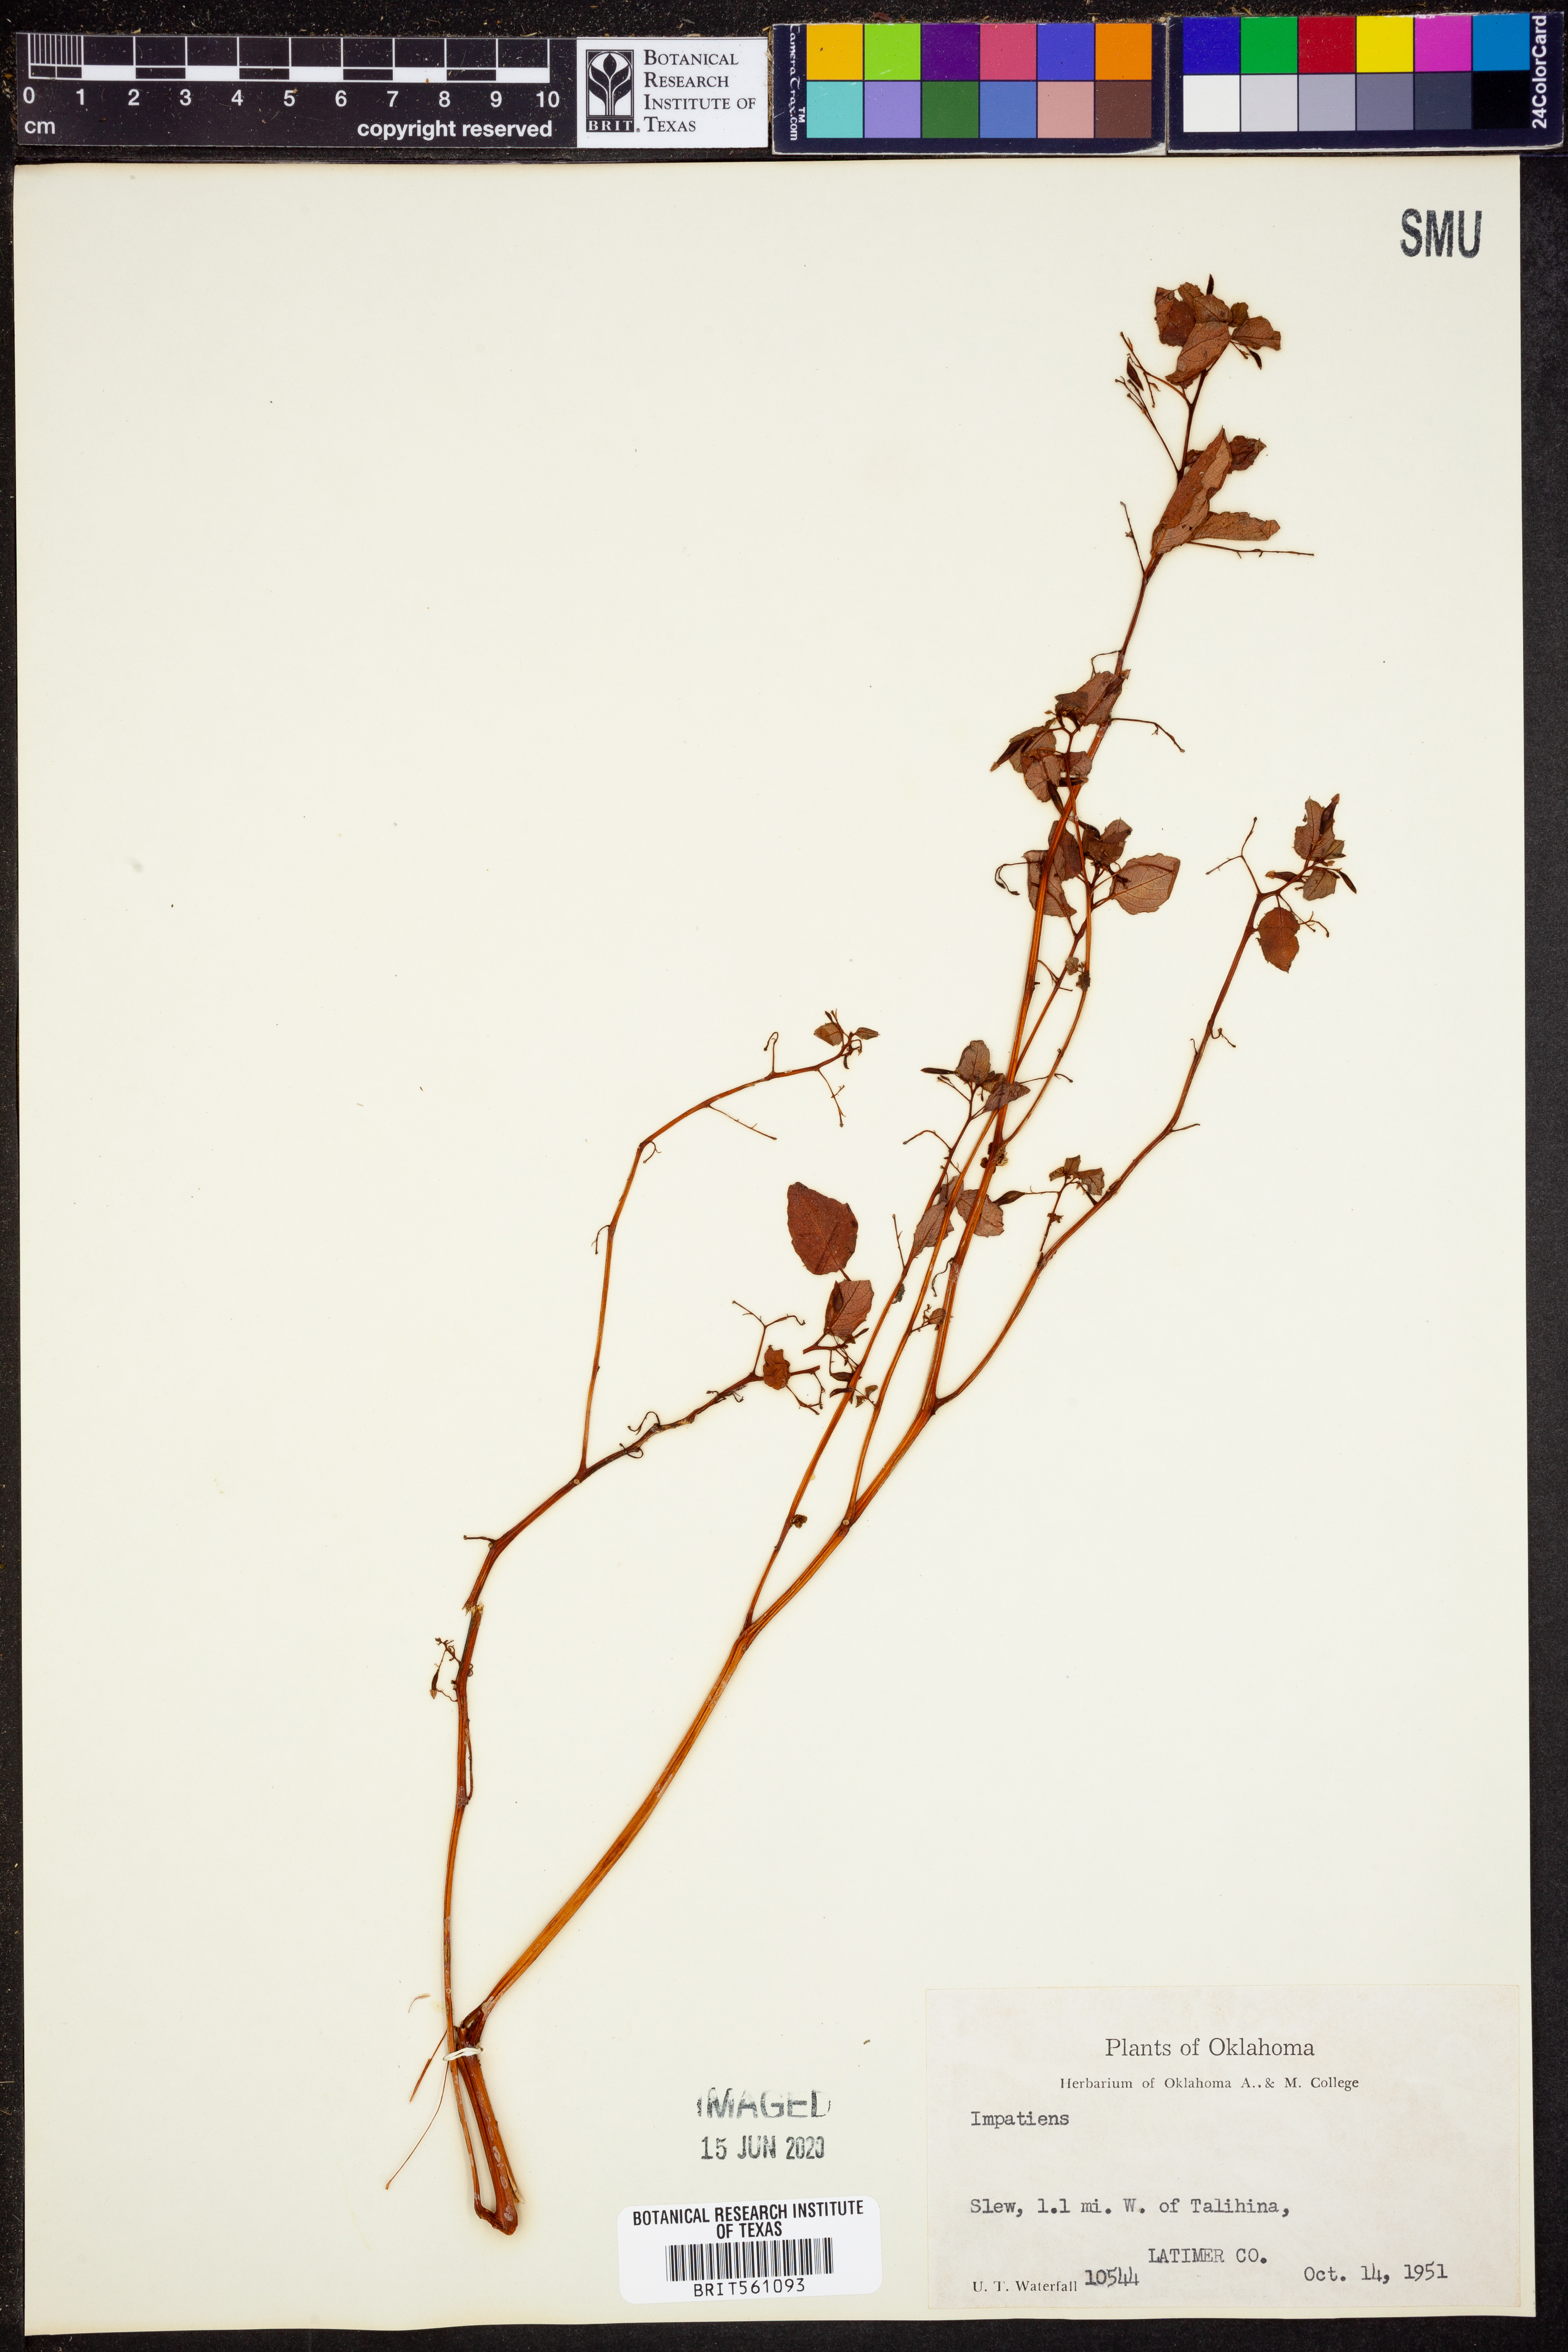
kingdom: Plantae
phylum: Tracheophyta
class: Magnoliopsida
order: Ericales
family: Balsaminaceae
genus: Impatiens
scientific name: Impatiens
